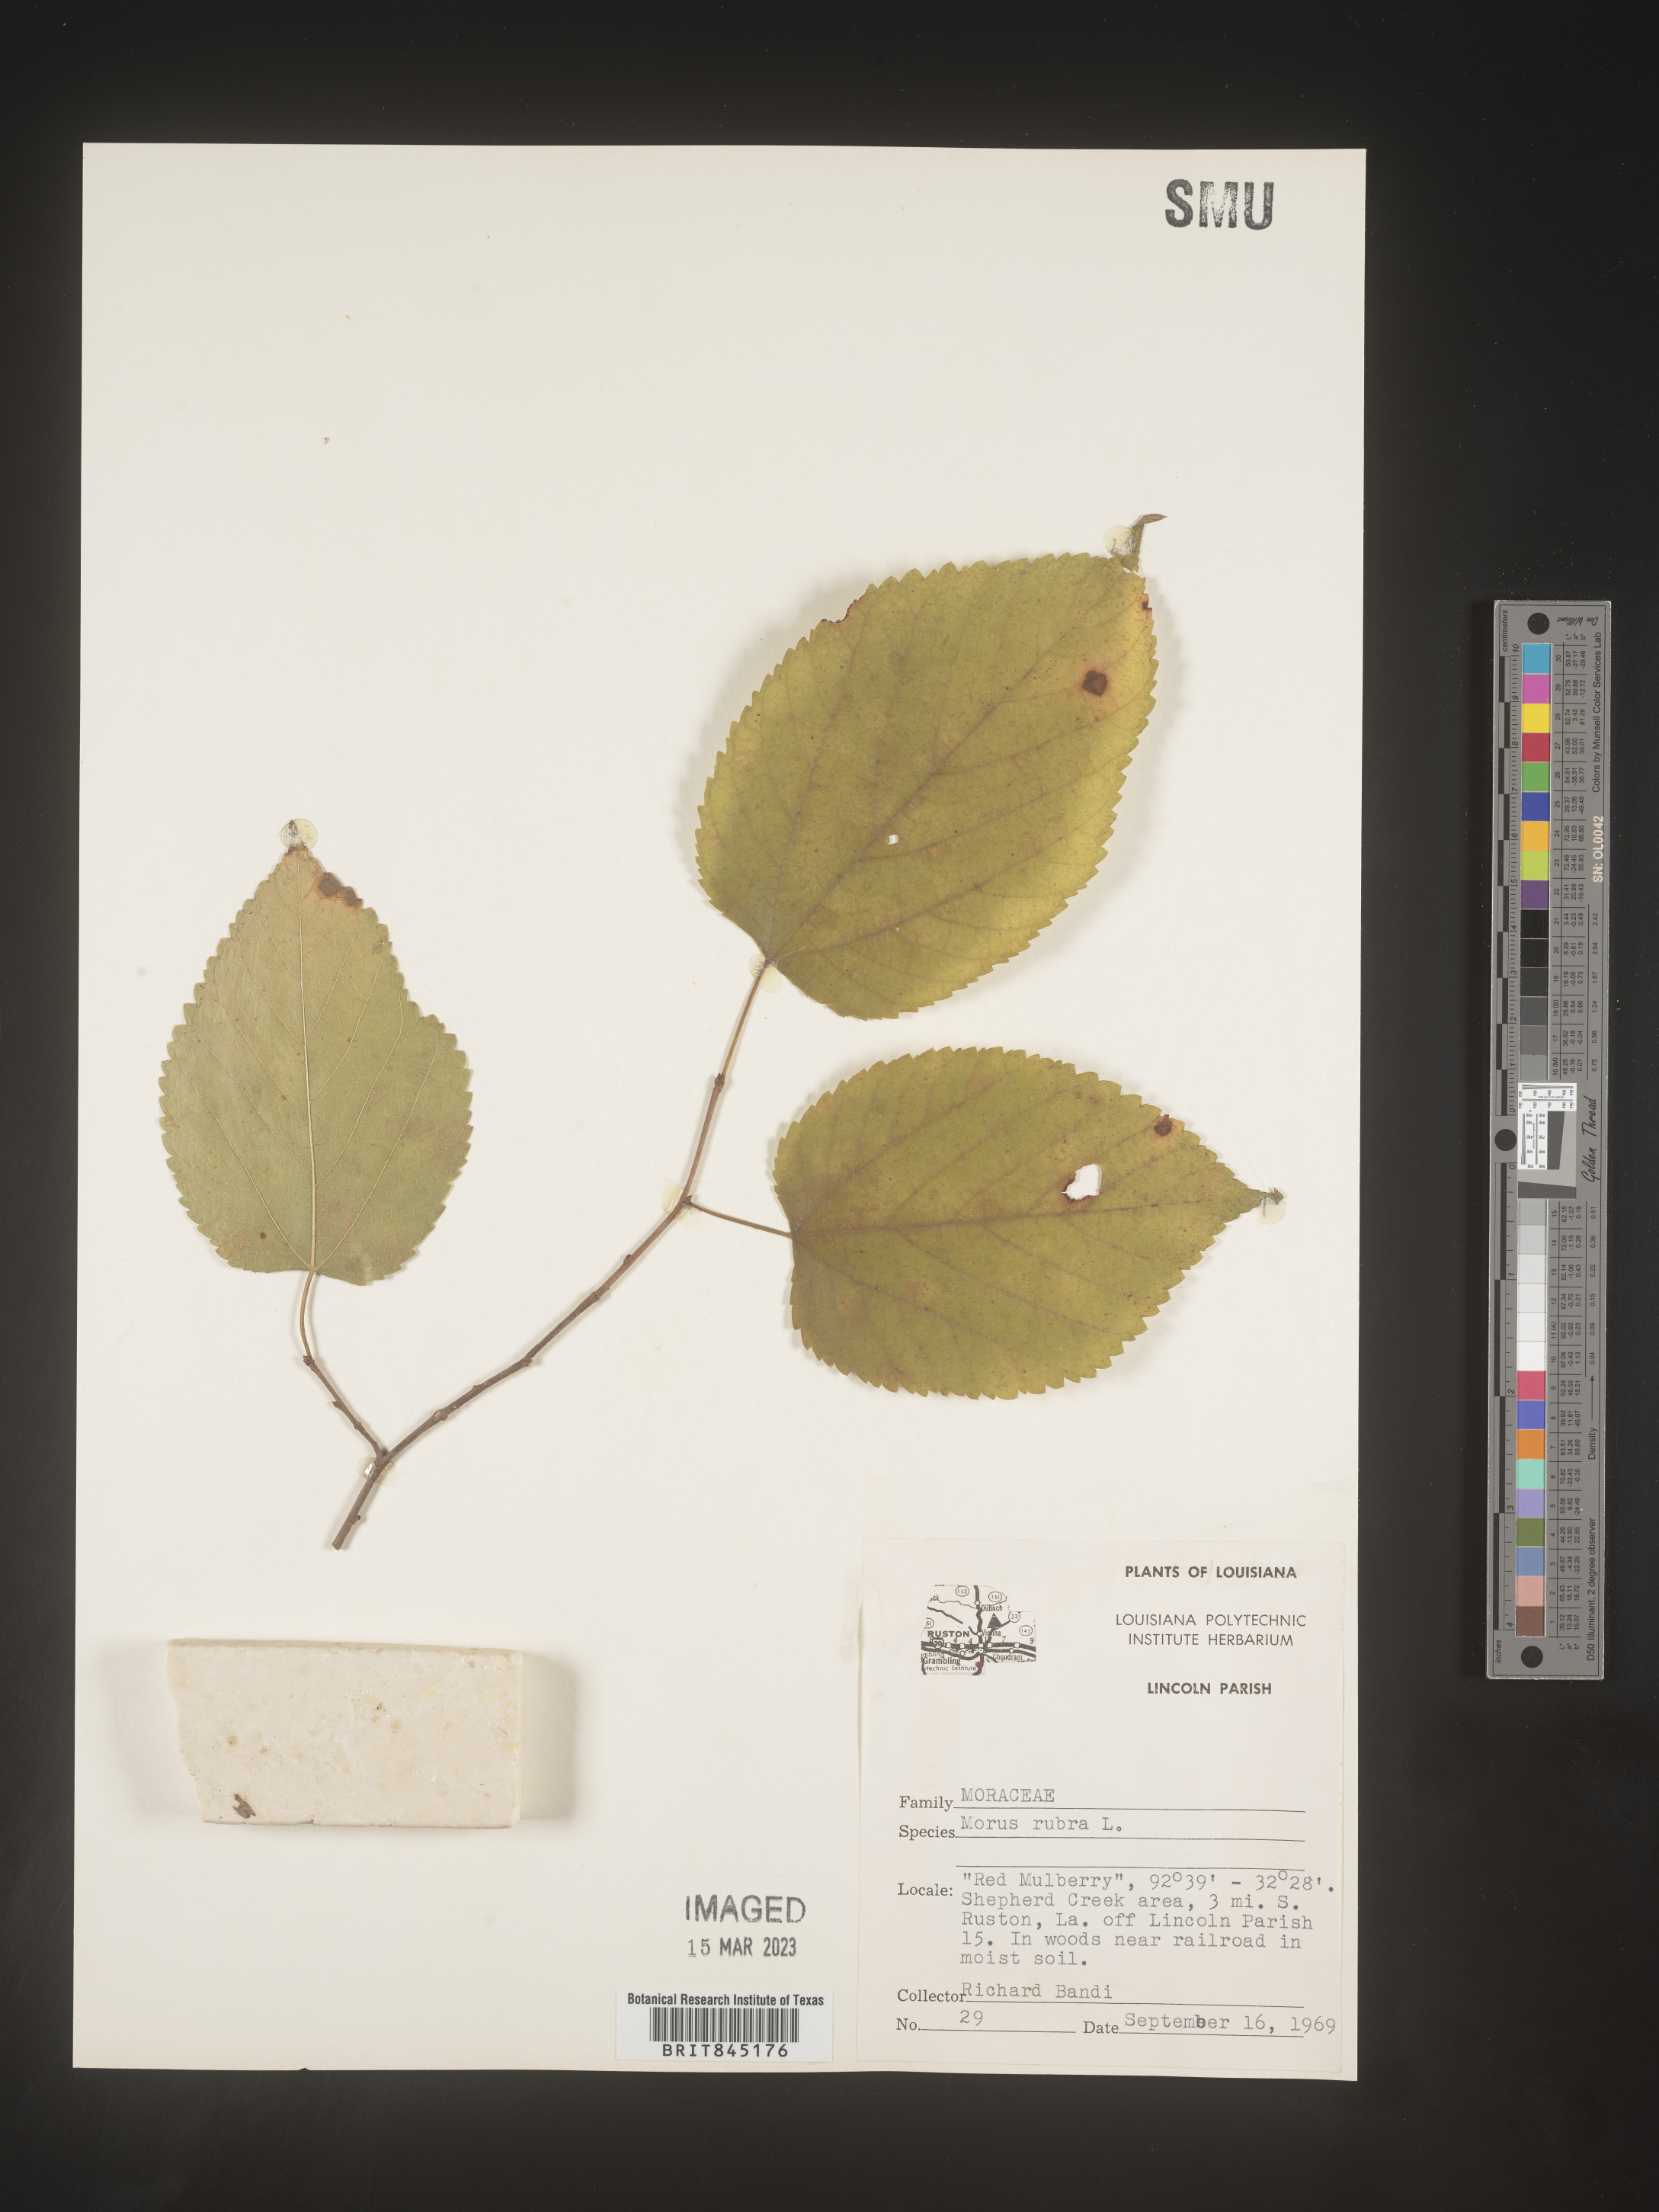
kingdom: Plantae
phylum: Tracheophyta
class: Magnoliopsida
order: Rosales
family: Moraceae
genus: Morus
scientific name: Morus rubra
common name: Red mulberry
